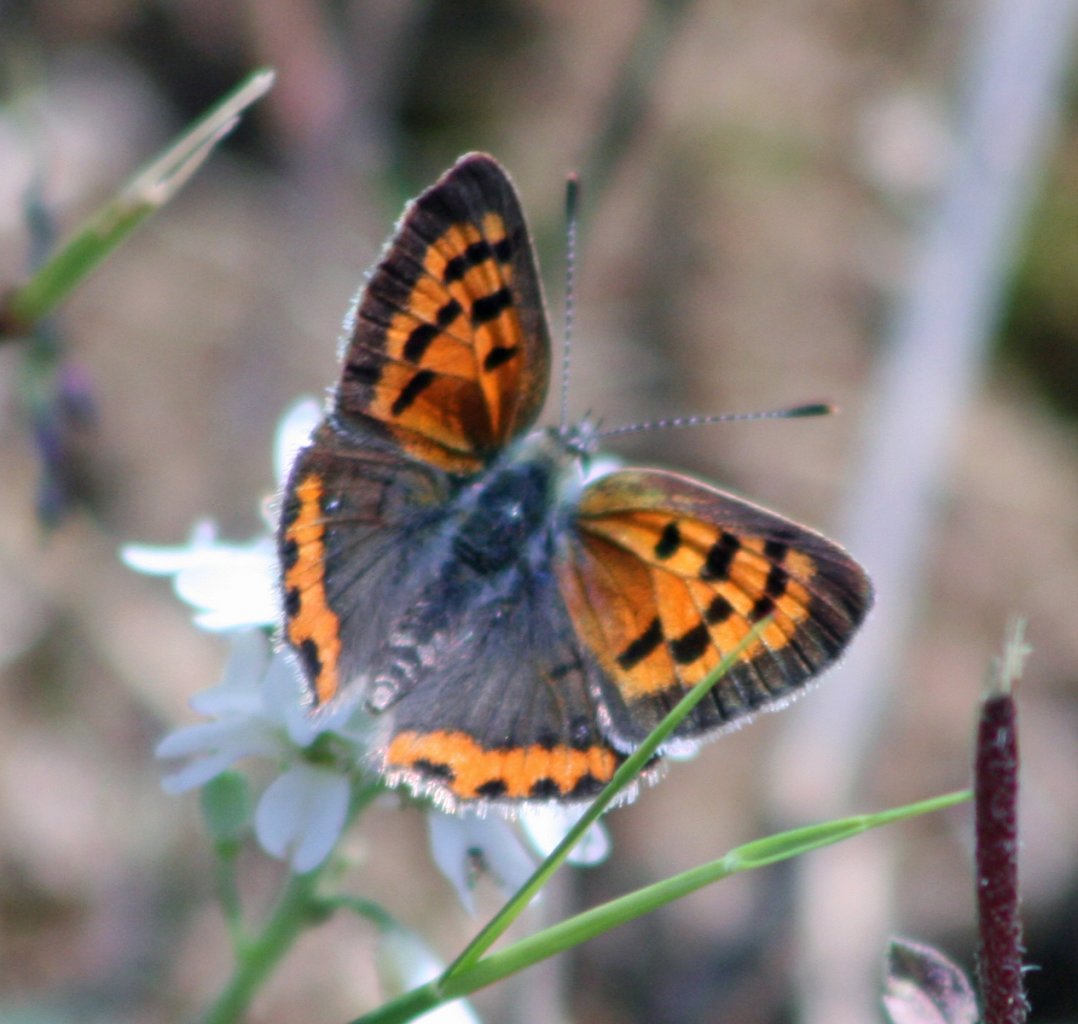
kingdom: Animalia
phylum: Arthropoda
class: Insecta
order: Lepidoptera
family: Lycaenidae
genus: Lycaena
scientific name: Lycaena phlaeas
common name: American Copper
